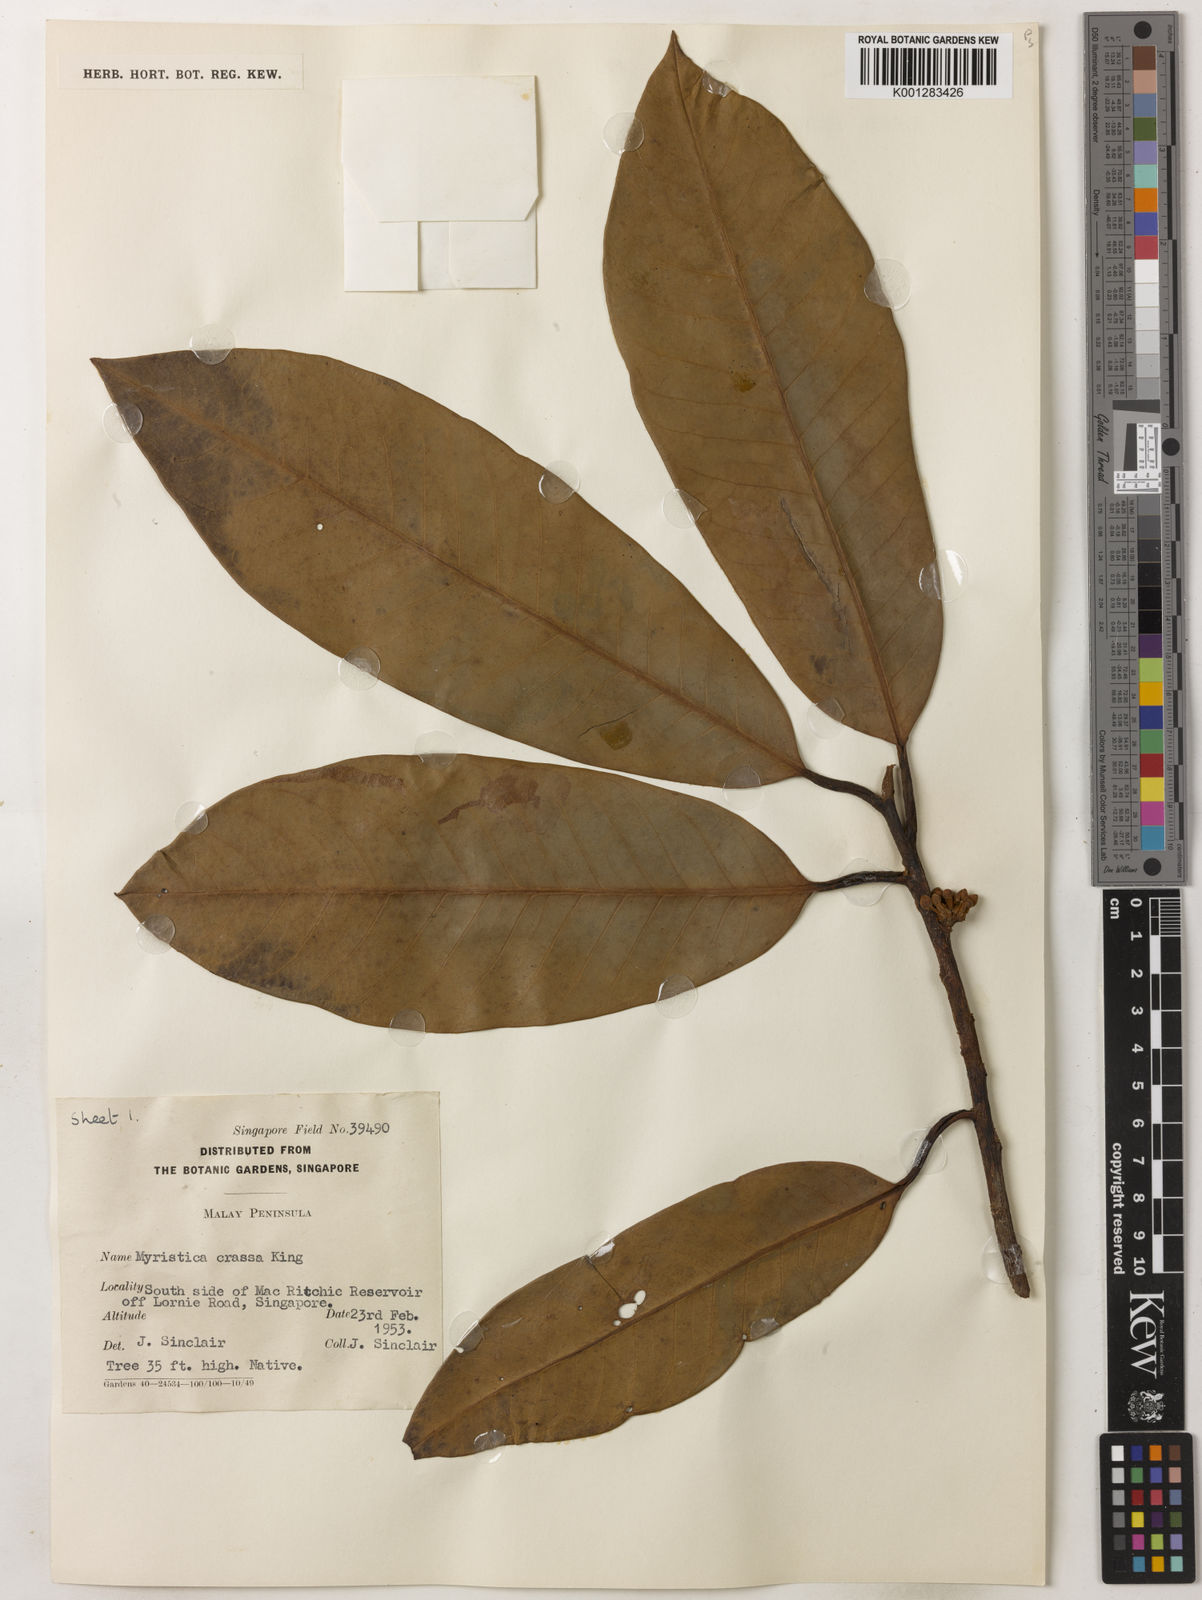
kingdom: Plantae
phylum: Tracheophyta
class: Magnoliopsida
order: Magnoliales
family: Myristicaceae
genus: Myristica
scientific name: Myristica crassa
